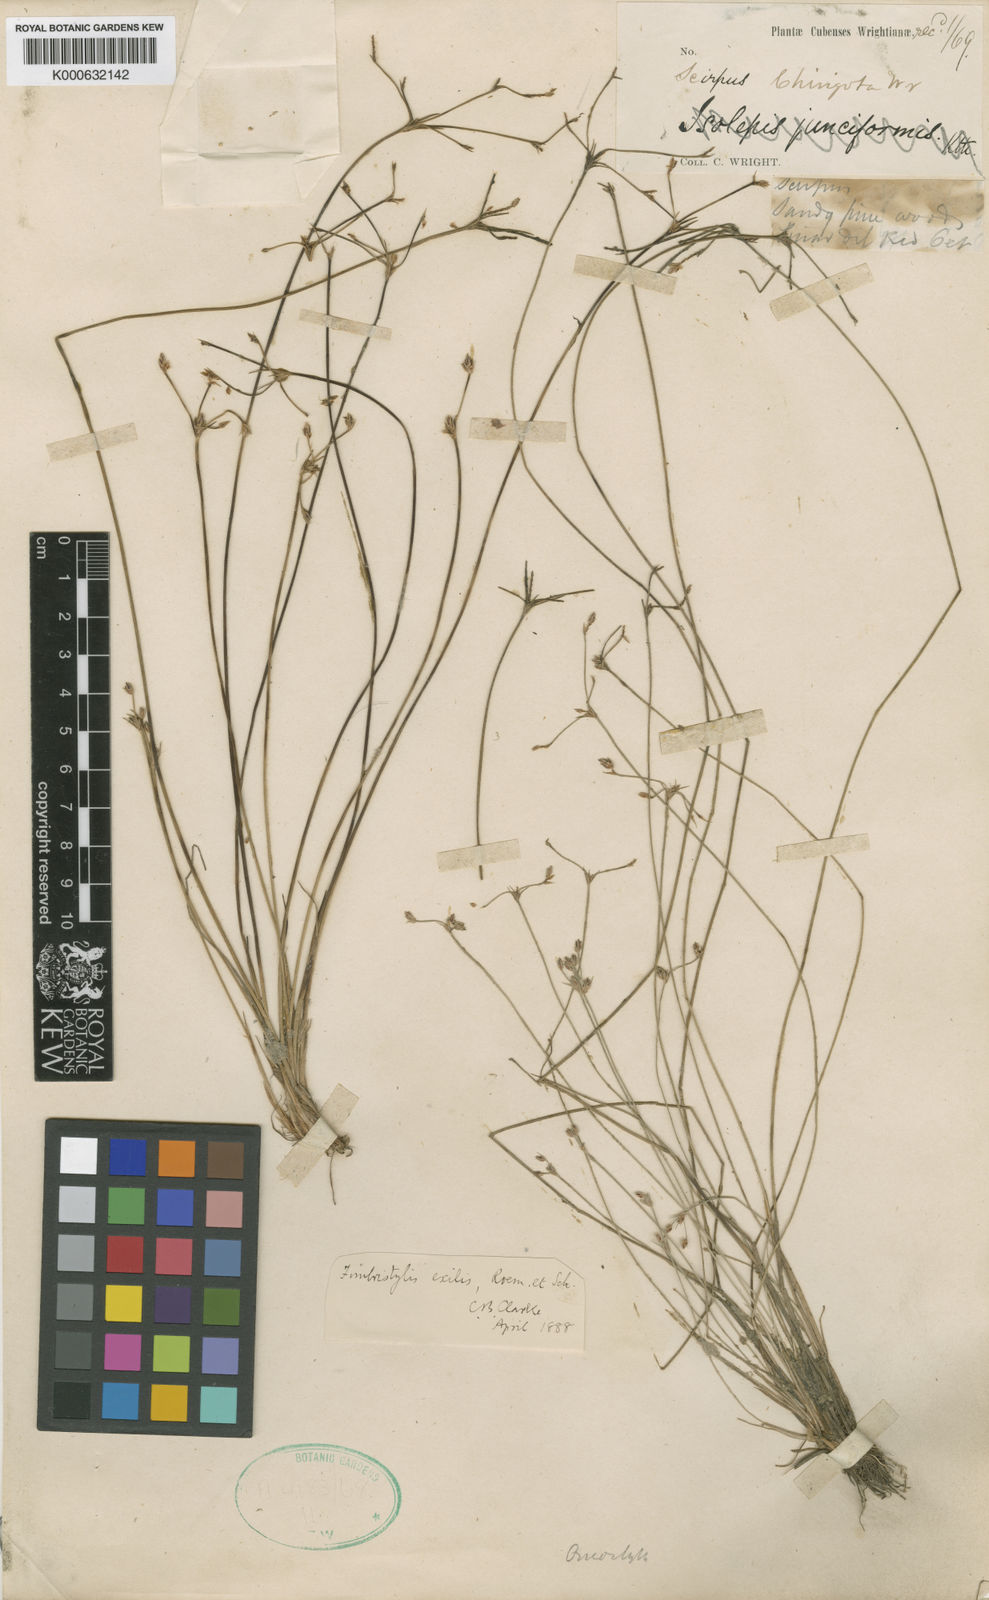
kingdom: Plantae
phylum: Tracheophyta
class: Liliopsida
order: Poales
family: Cyperaceae
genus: Bulbostylis
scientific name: Bulbostylis hispidula
